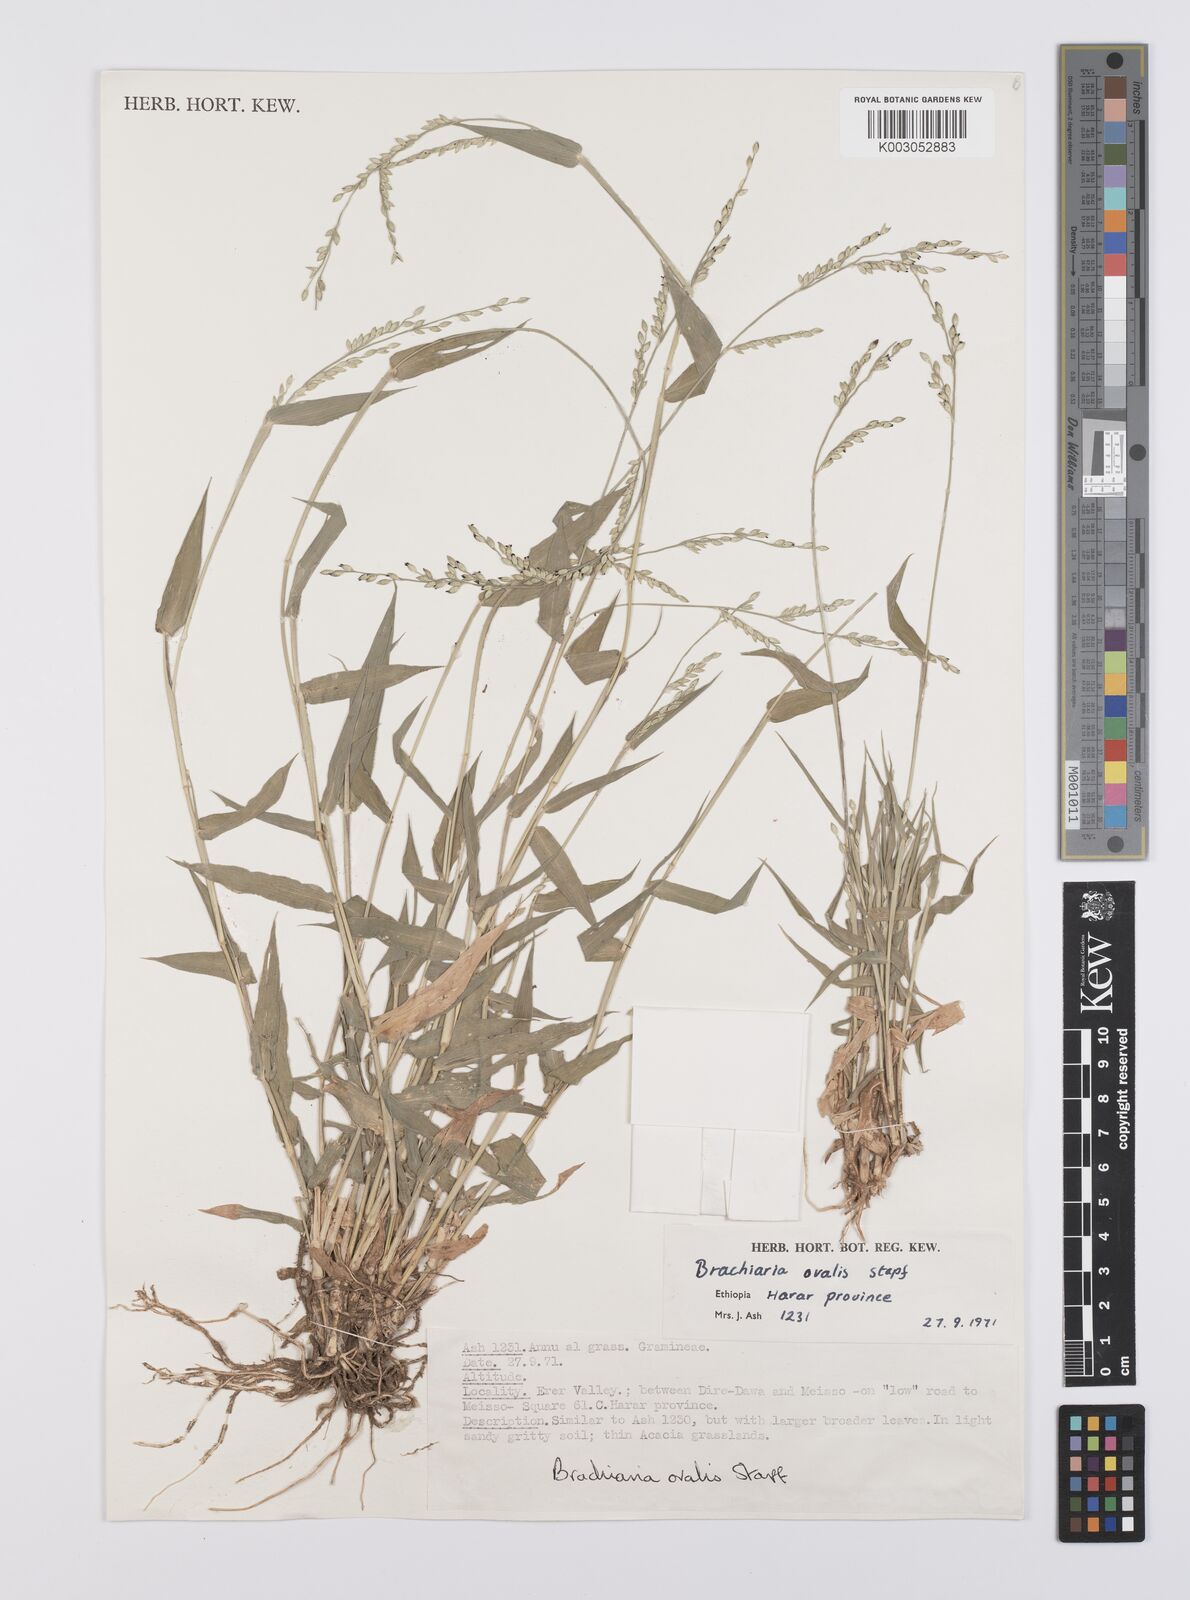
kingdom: Plantae
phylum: Tracheophyta
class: Liliopsida
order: Poales
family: Poaceae
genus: Urochloa
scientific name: Urochloa ovalis
